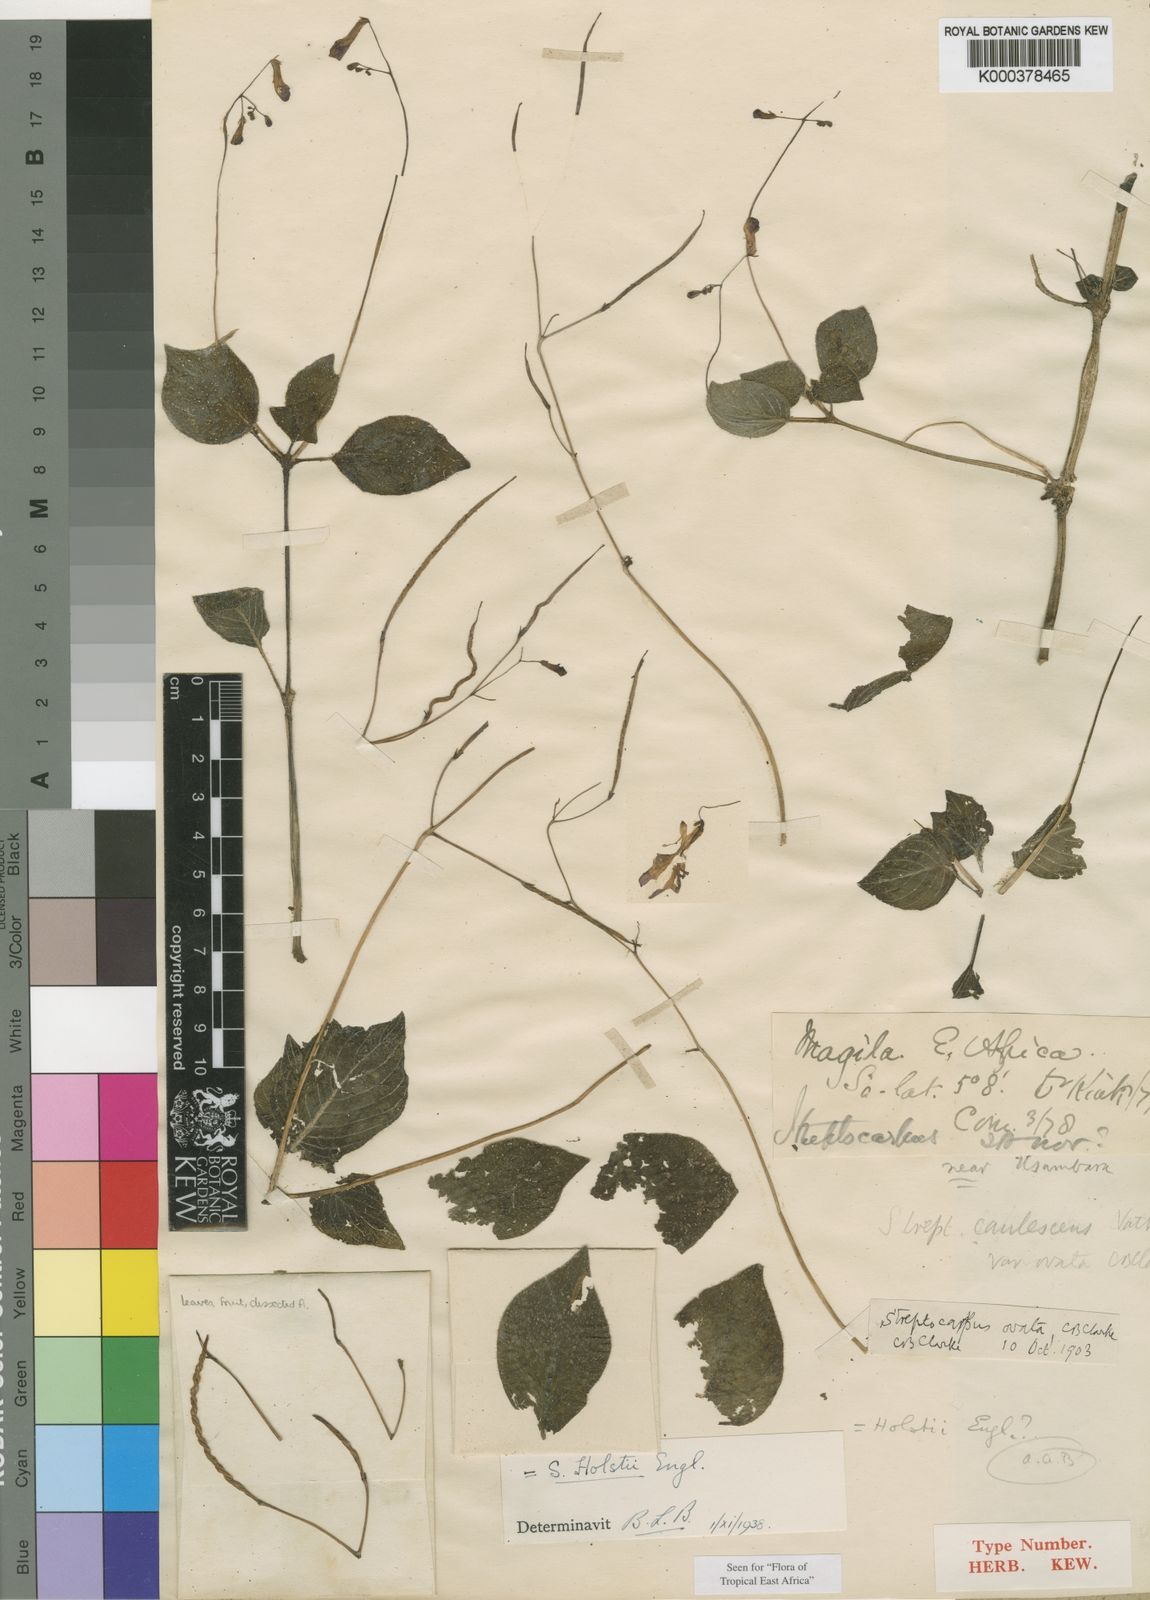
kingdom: Plantae
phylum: Tracheophyta
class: Magnoliopsida
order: Lamiales
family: Gesneriaceae
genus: Streptocarpus
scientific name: Streptocarpus holstii
